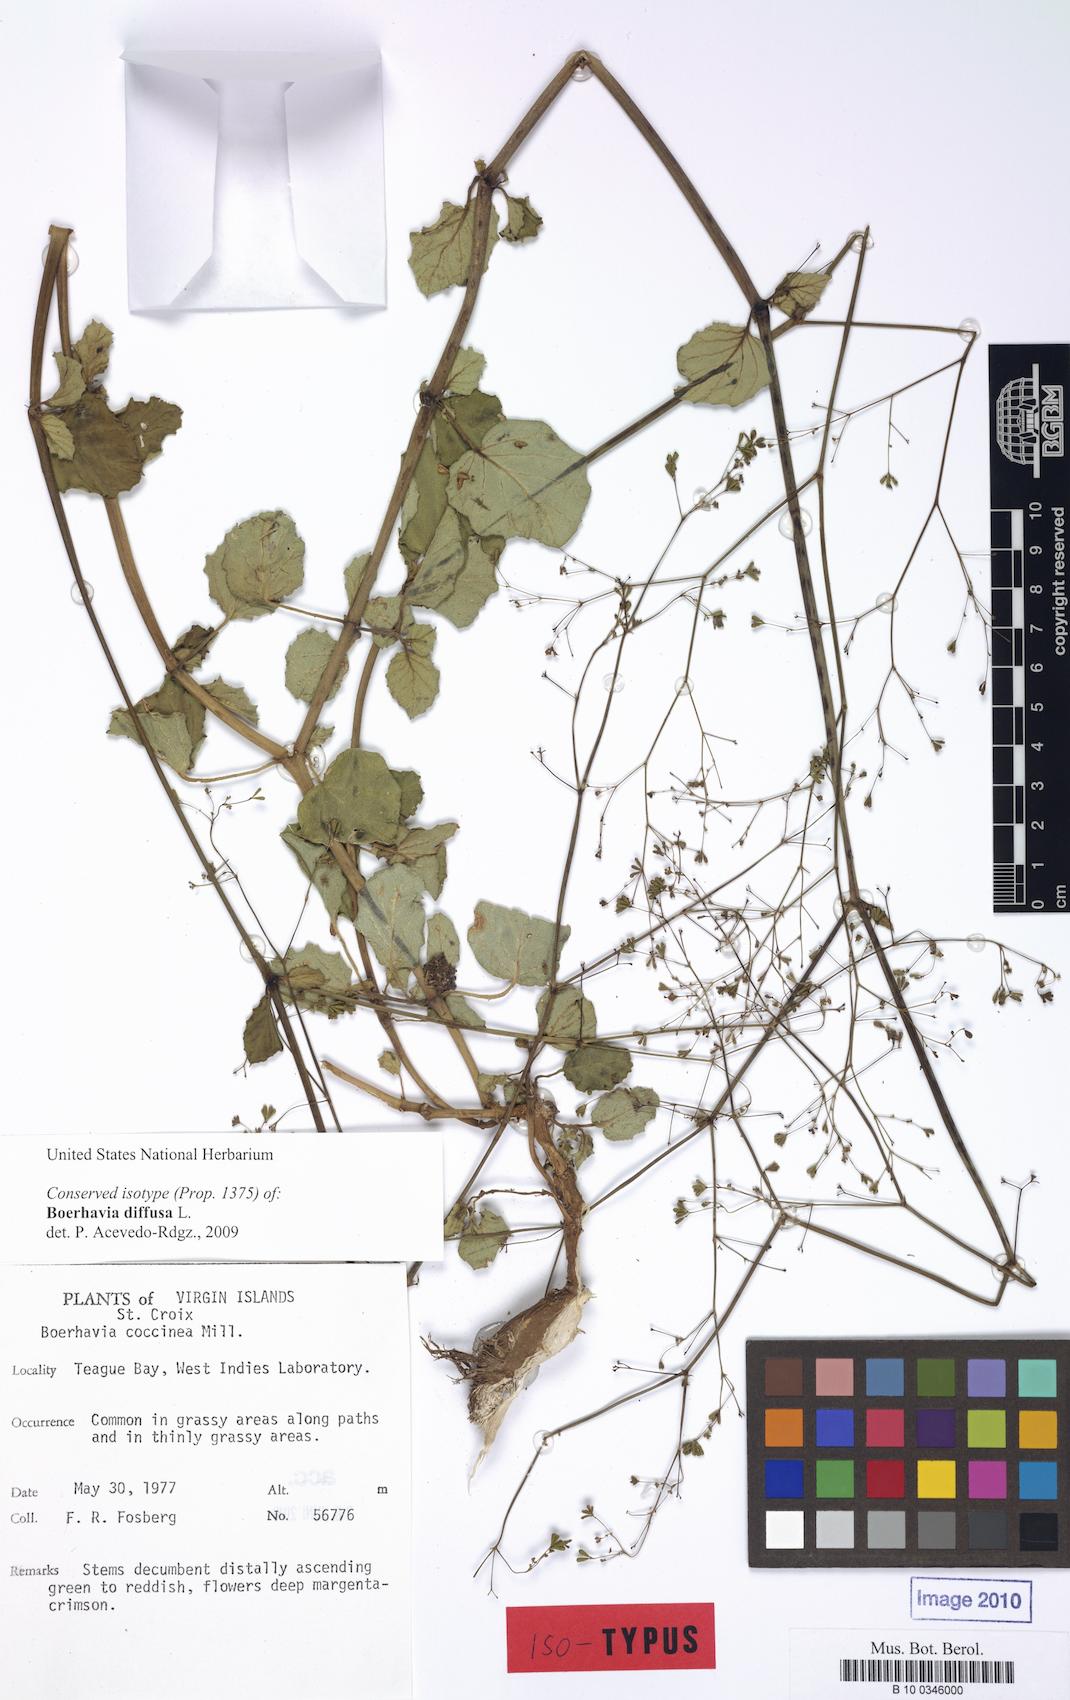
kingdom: Plantae
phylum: Tracheophyta
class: Magnoliopsida
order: Caryophyllales
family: Nyctaginaceae
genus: Boerhavia
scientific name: Boerhavia diffusa
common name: Red spiderling
